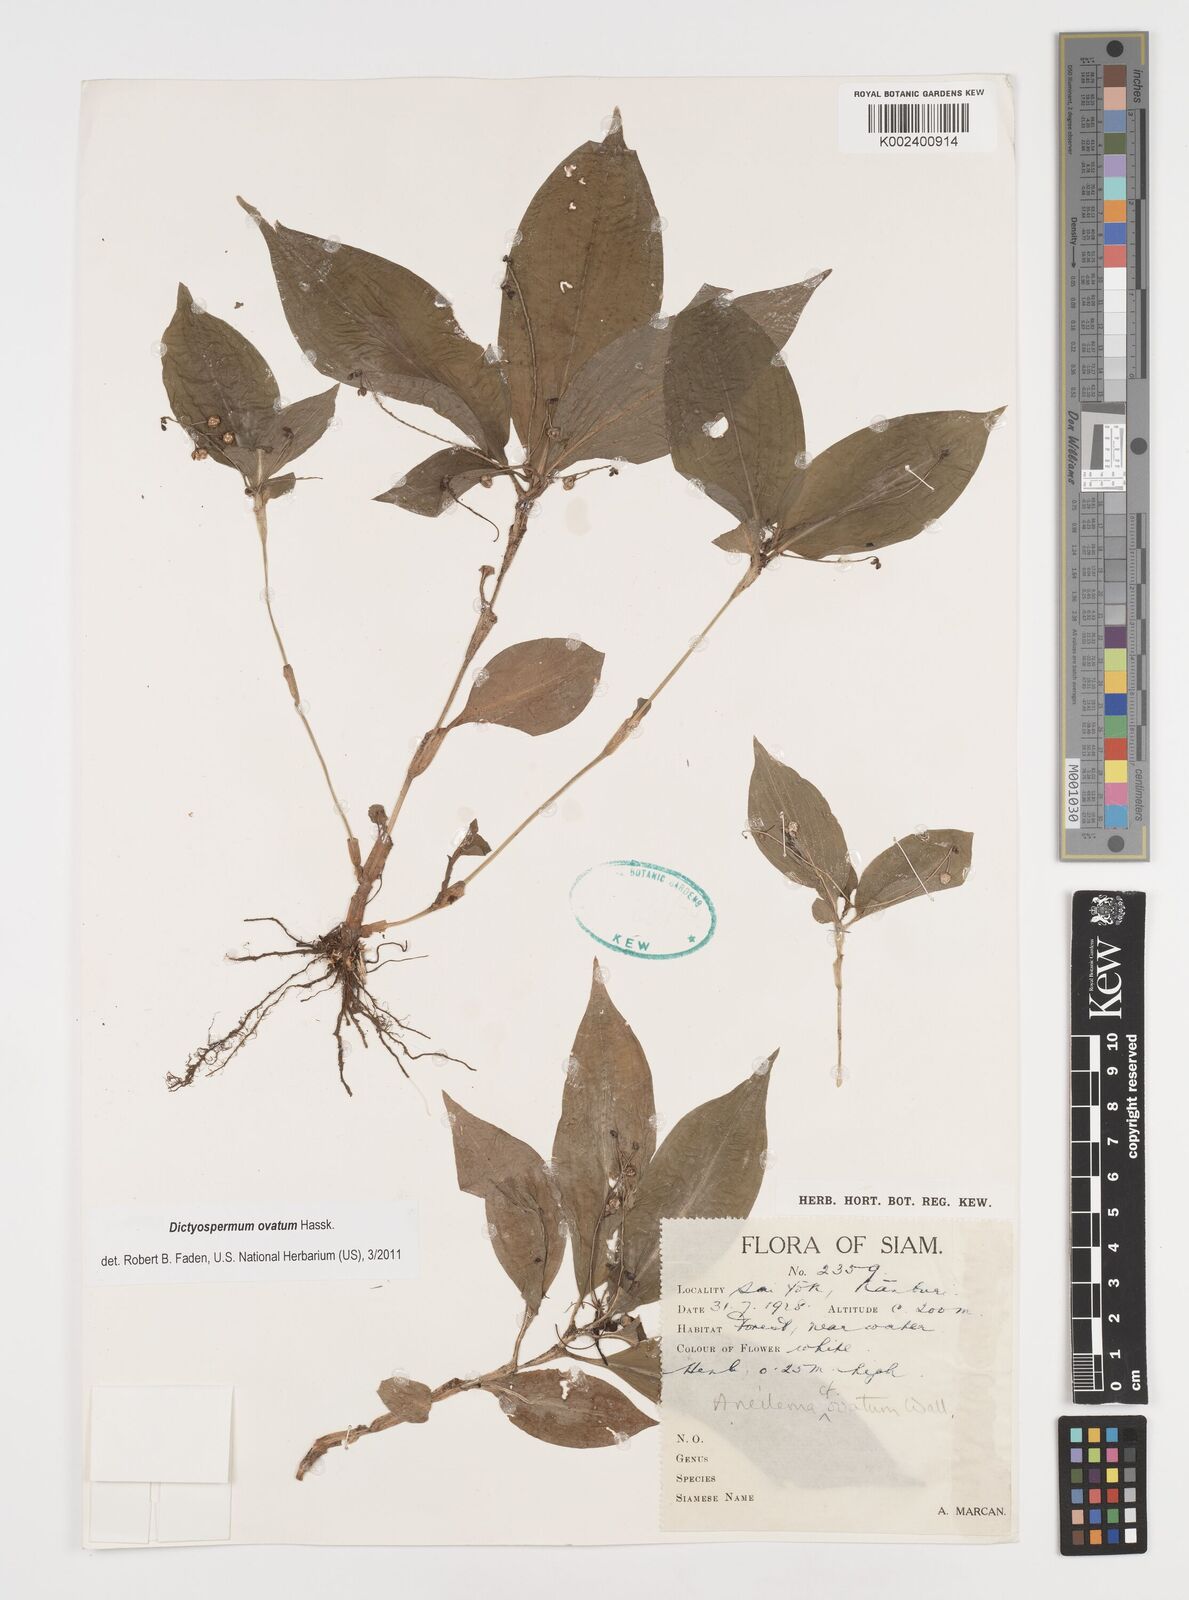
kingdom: Plantae
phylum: Tracheophyta
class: Liliopsida
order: Commelinales
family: Commelinaceae
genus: Dictyospermum
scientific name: Dictyospermum ovatum
